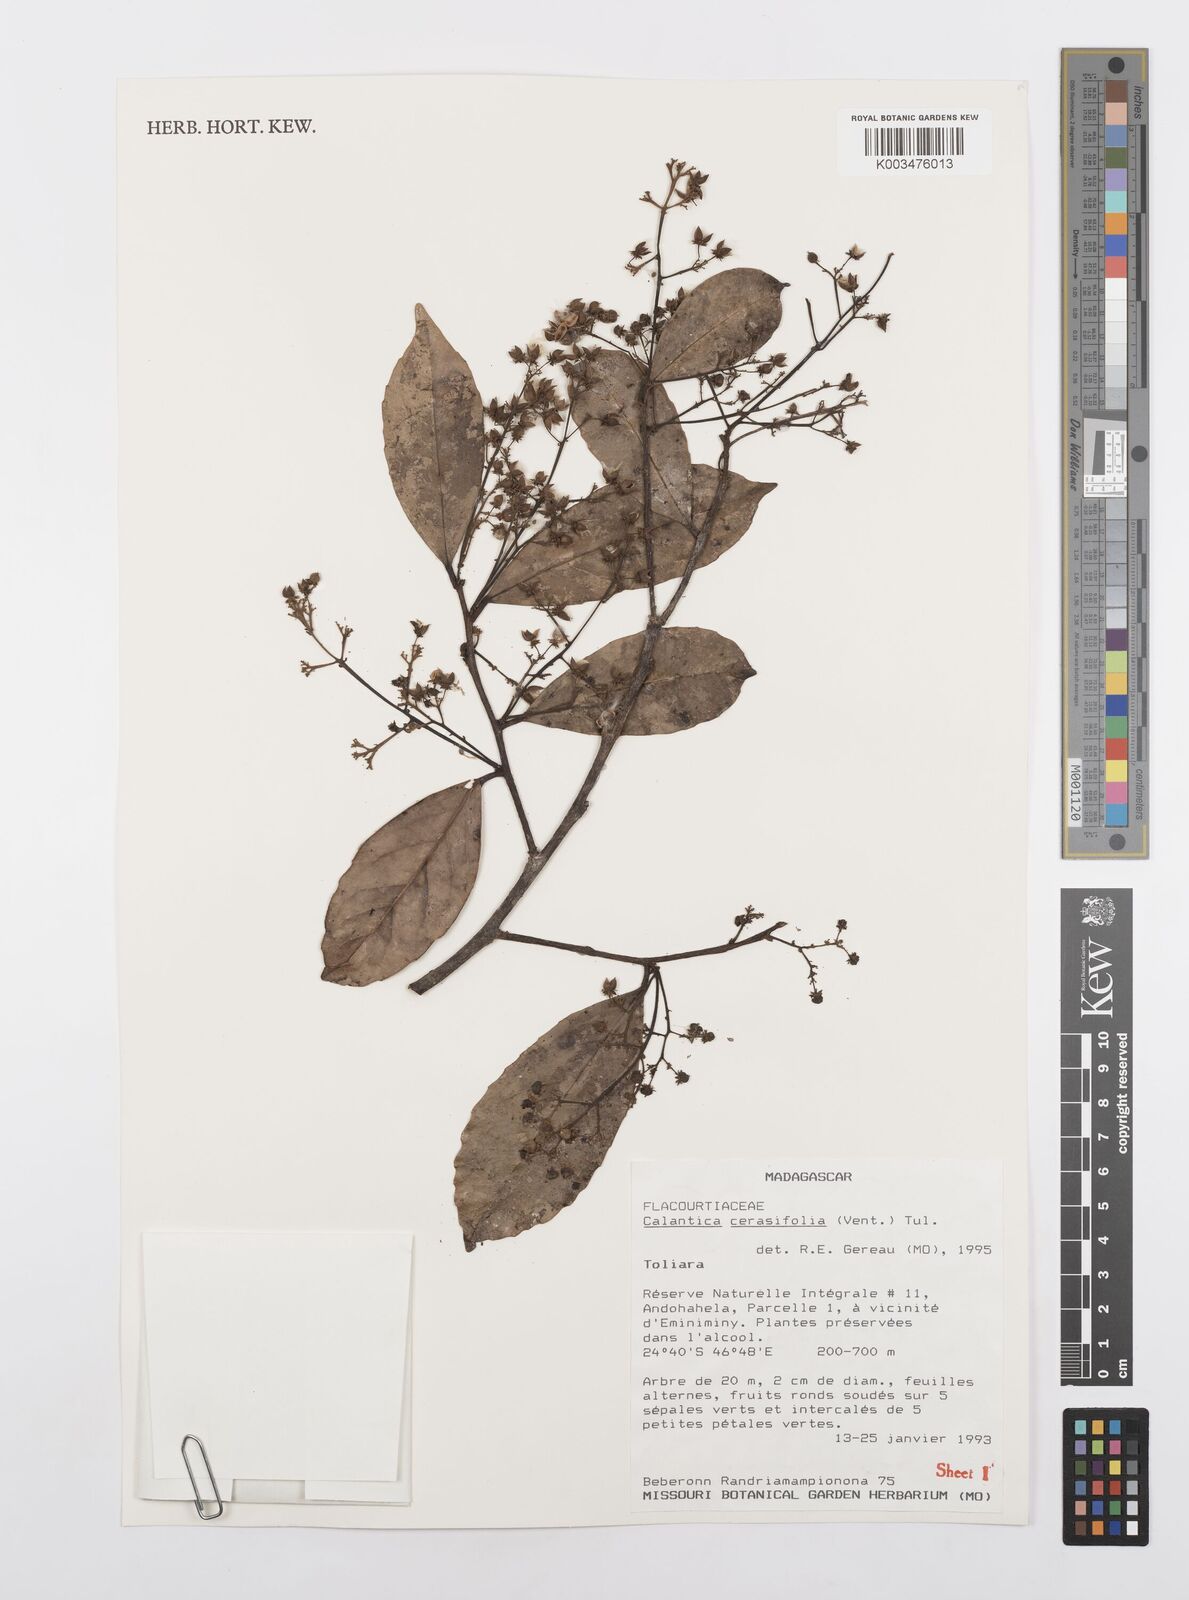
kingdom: Plantae
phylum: Tracheophyta
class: Magnoliopsida
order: Malpighiales
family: Salicaceae
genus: Calantica
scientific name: Calantica cerasifolia
